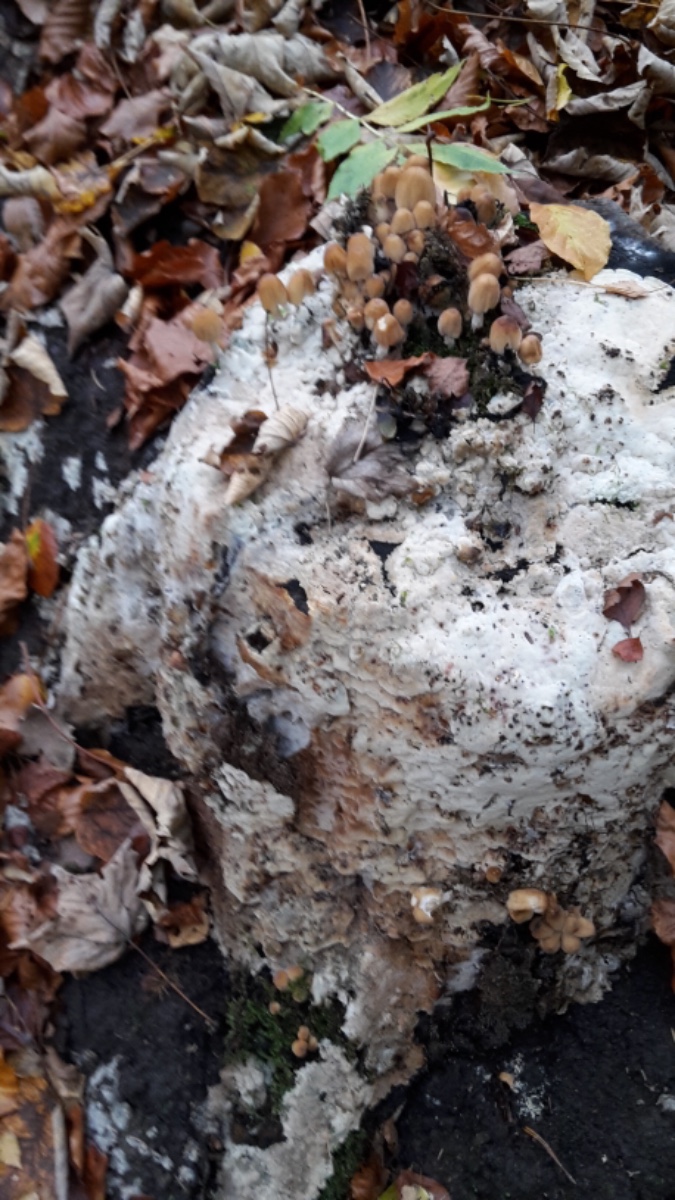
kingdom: Fungi
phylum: Basidiomycota
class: Agaricomycetes
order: Polyporales
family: Meruliaceae
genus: Physisporinus
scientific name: Physisporinus vitreus
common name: mastesvamp
